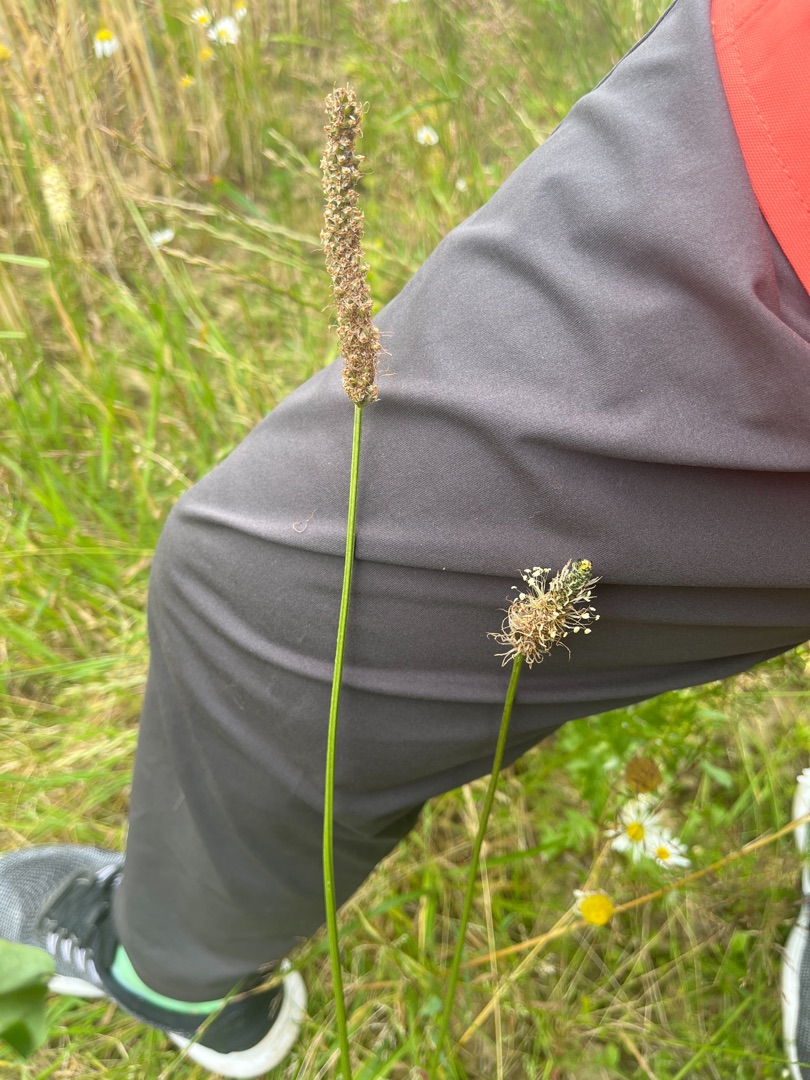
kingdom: Plantae
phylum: Tracheophyta
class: Magnoliopsida
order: Lamiales
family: Plantaginaceae
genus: Plantago
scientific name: Plantago lanceolata
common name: Lancet-vejbred
